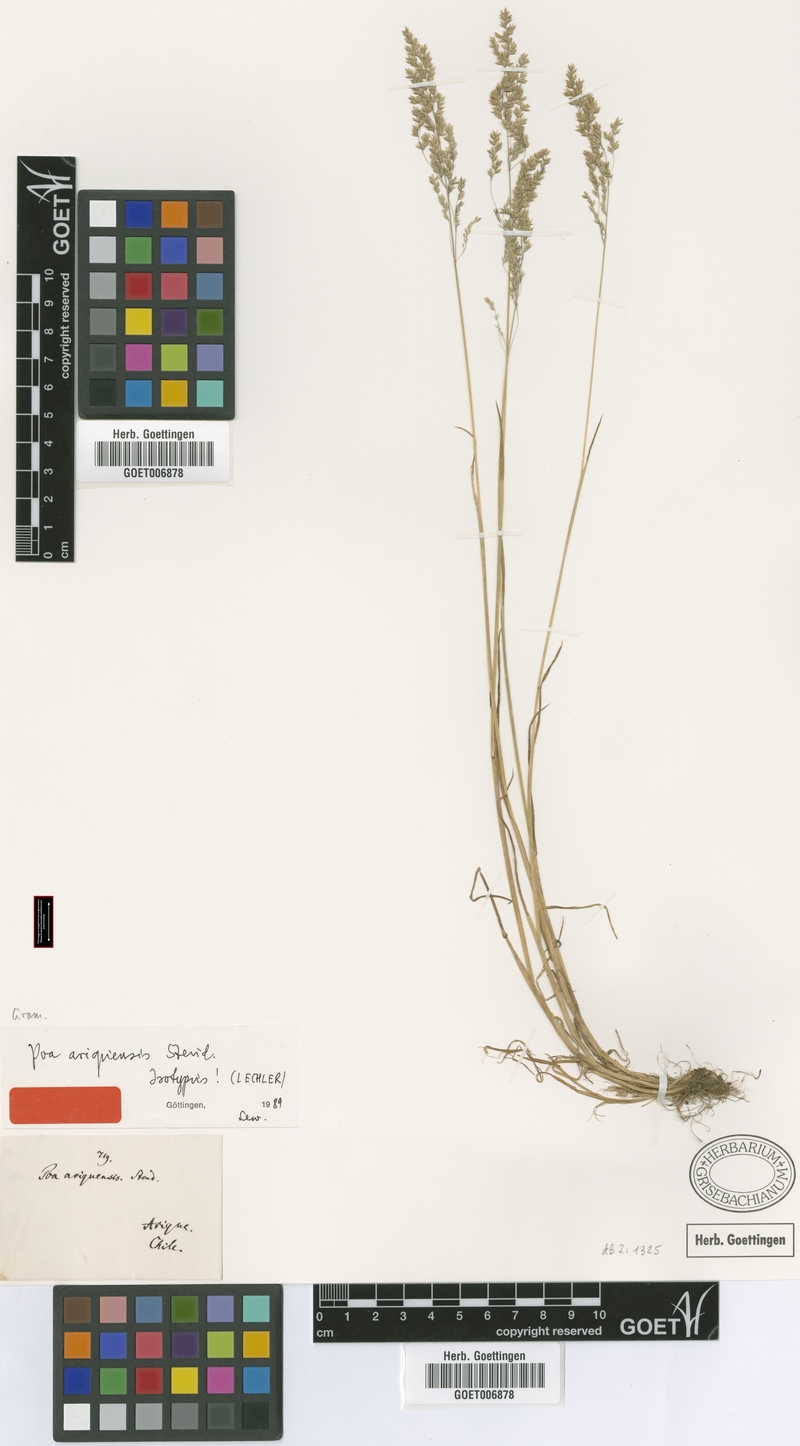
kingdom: Plantae
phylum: Tracheophyta
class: Liliopsida
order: Poales
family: Poaceae
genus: Poa
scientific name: Poa trivialis
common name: Rough bluegrass
